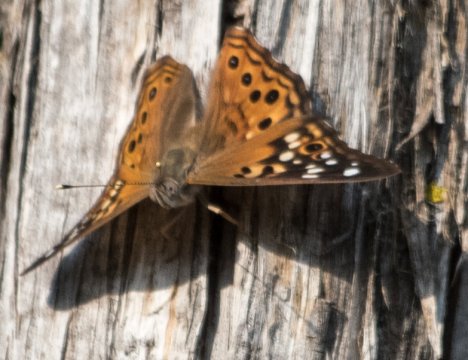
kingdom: Animalia
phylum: Arthropoda
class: Insecta
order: Lepidoptera
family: Nymphalidae
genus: Asterocampa
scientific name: Asterocampa celtis
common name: Hackberry Emperor
